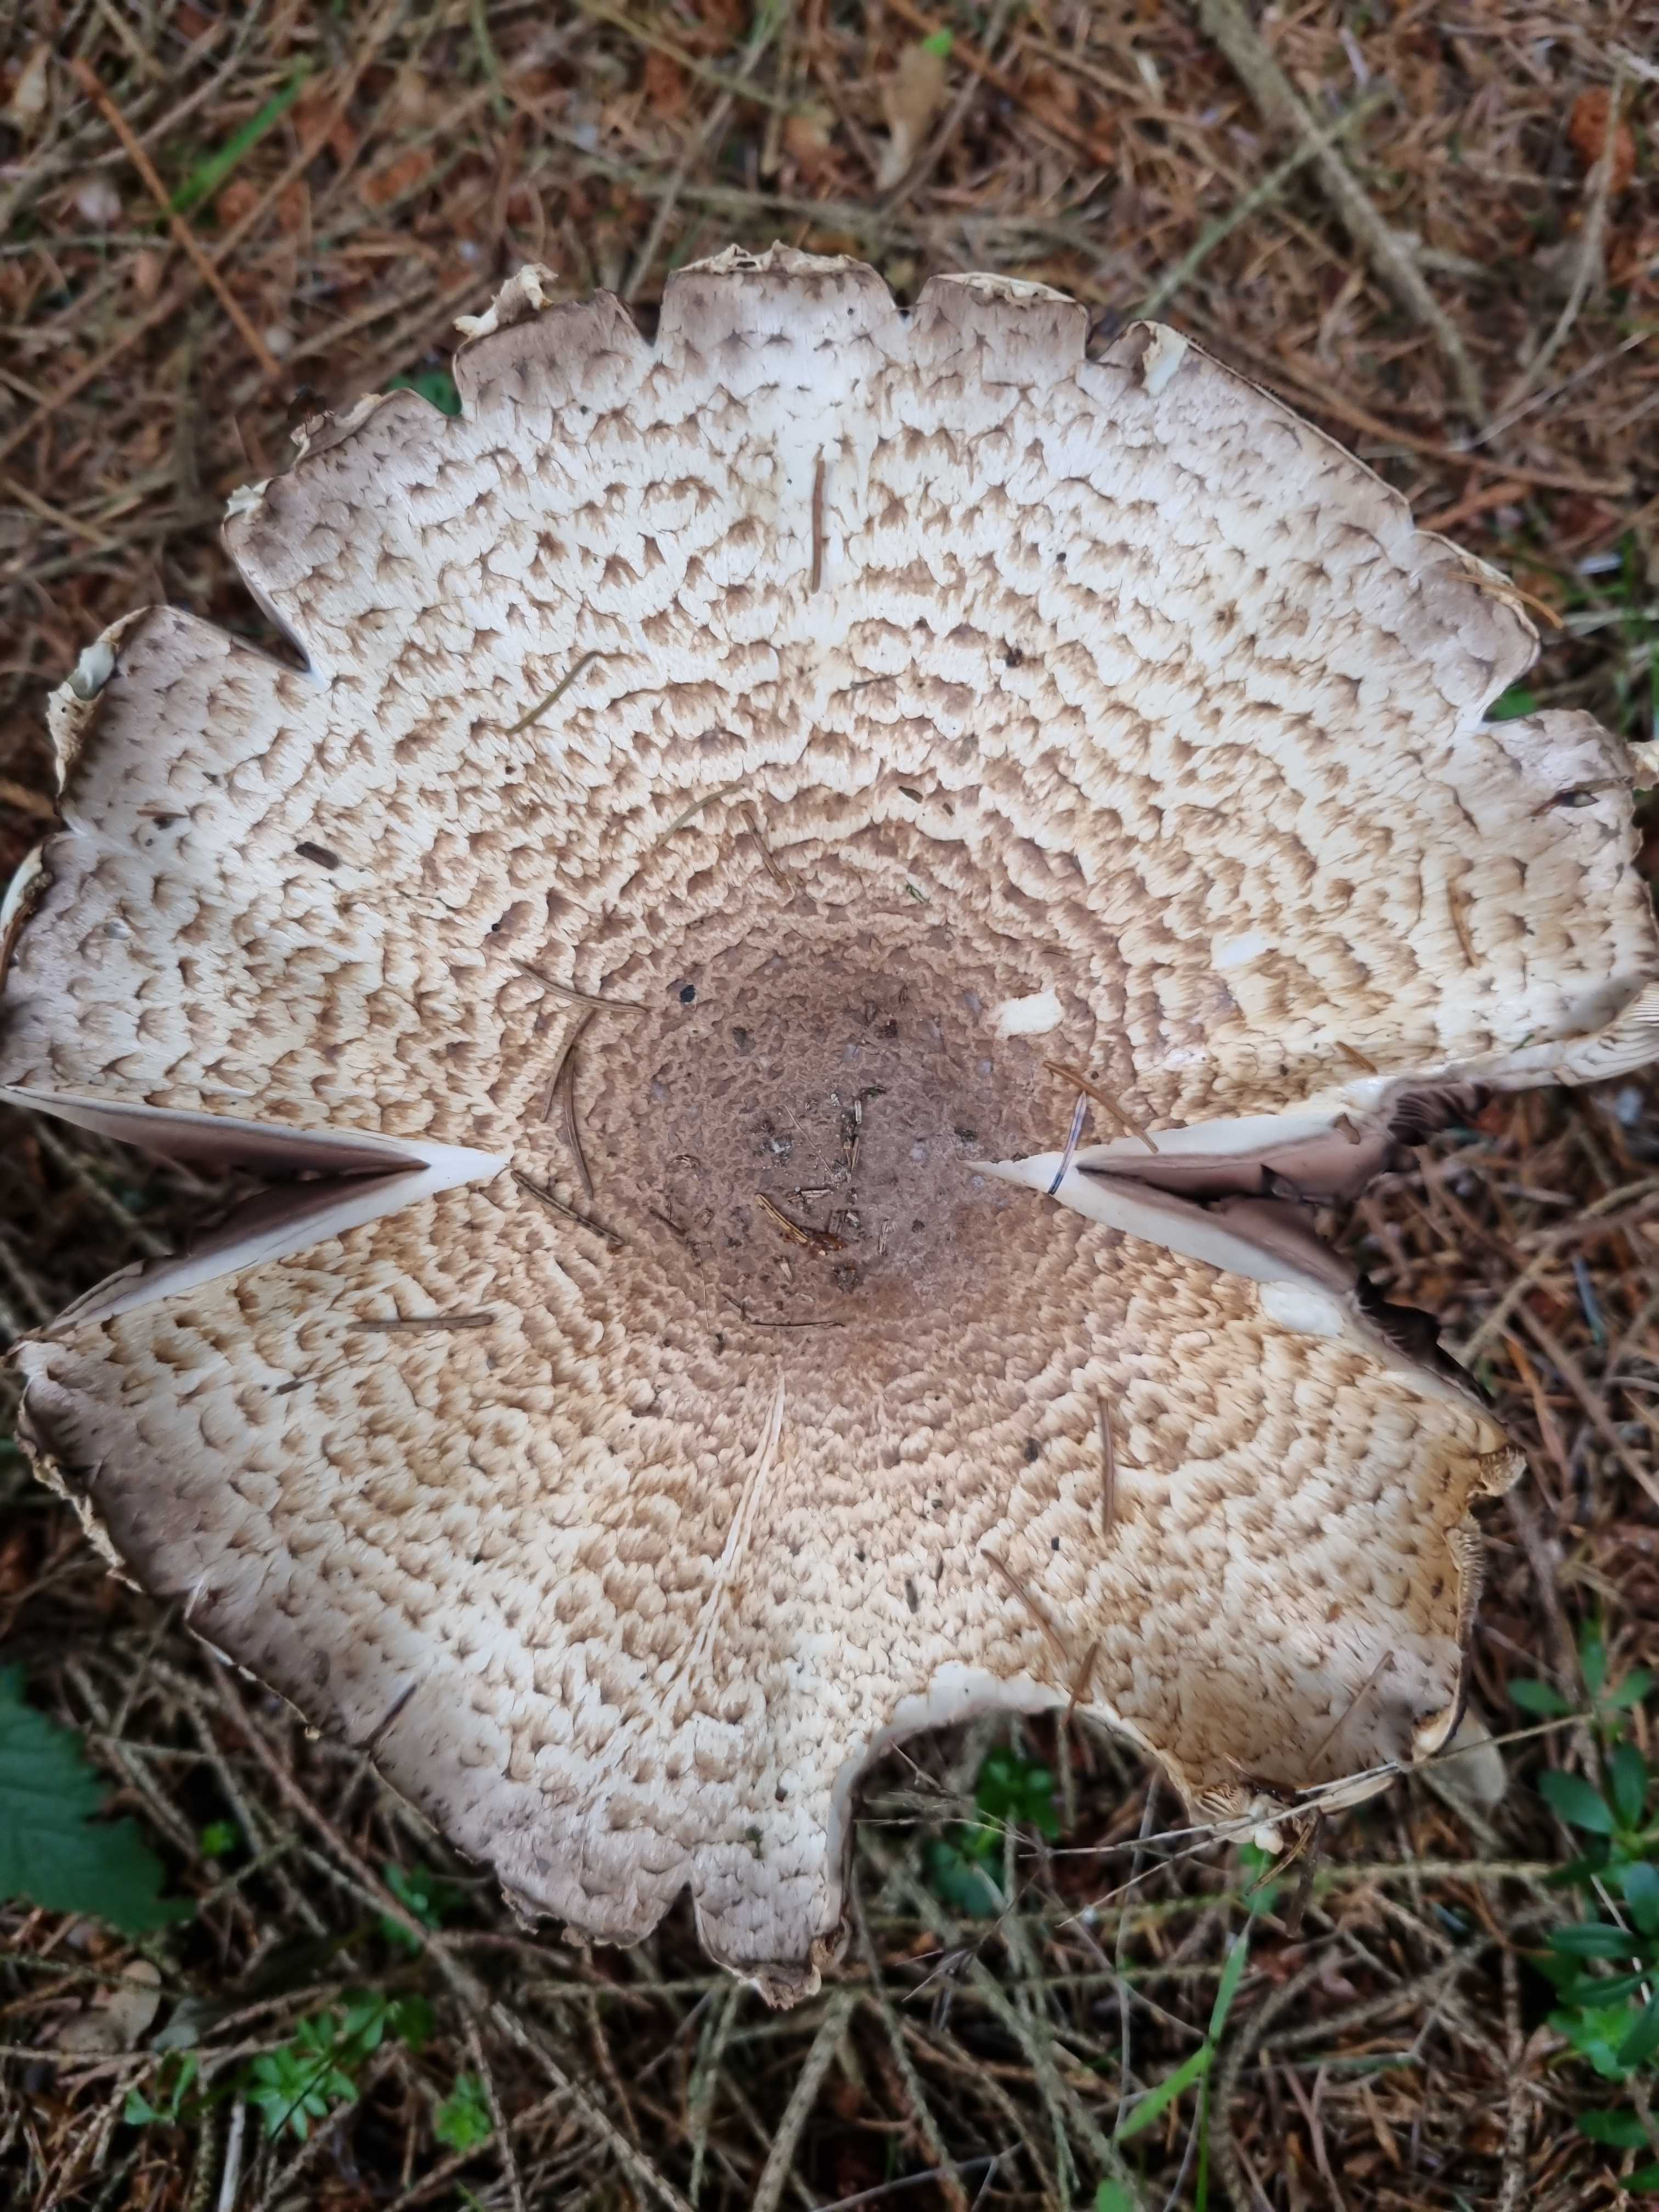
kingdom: Fungi
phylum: Basidiomycota
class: Agaricomycetes
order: Agaricales
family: Agaricaceae
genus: Agaricus
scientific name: Agaricus augustus
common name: prægtig champignon
